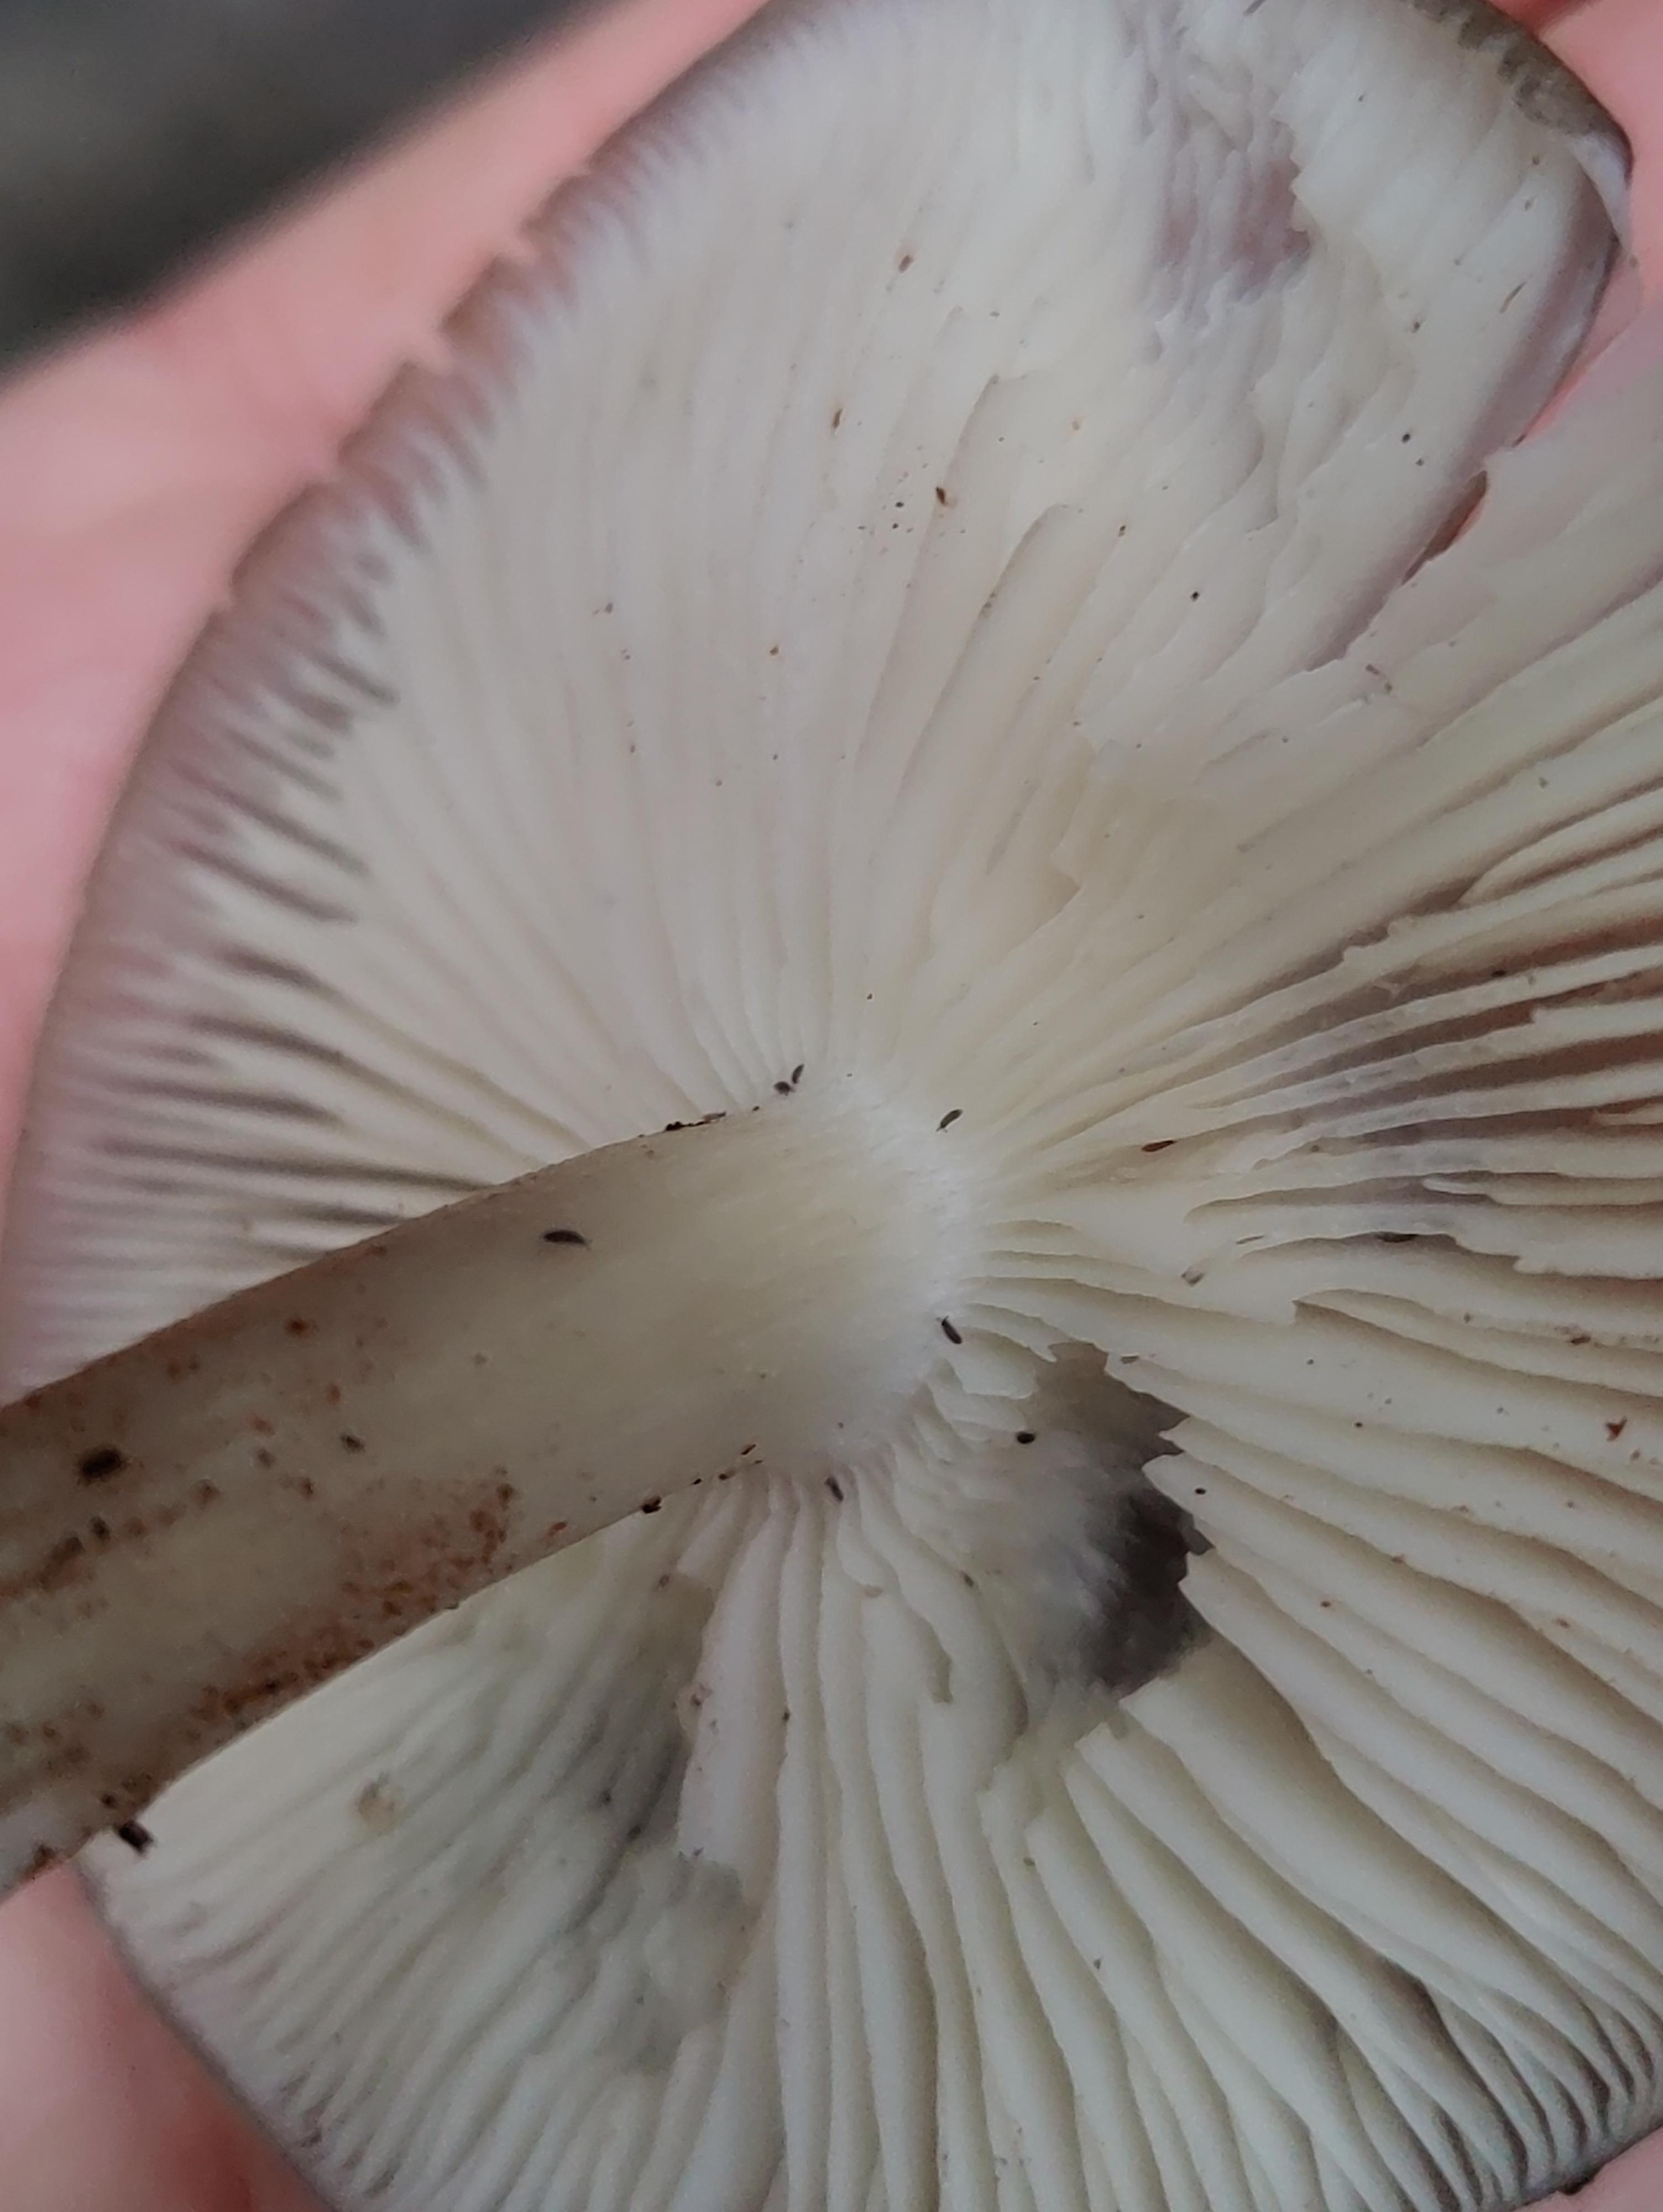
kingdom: Fungi
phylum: Basidiomycota
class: Agaricomycetes
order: Agaricales
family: Tricholomataceae
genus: Megacollybia
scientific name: Megacollybia platyphylla
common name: bredbladet væbnerhat
